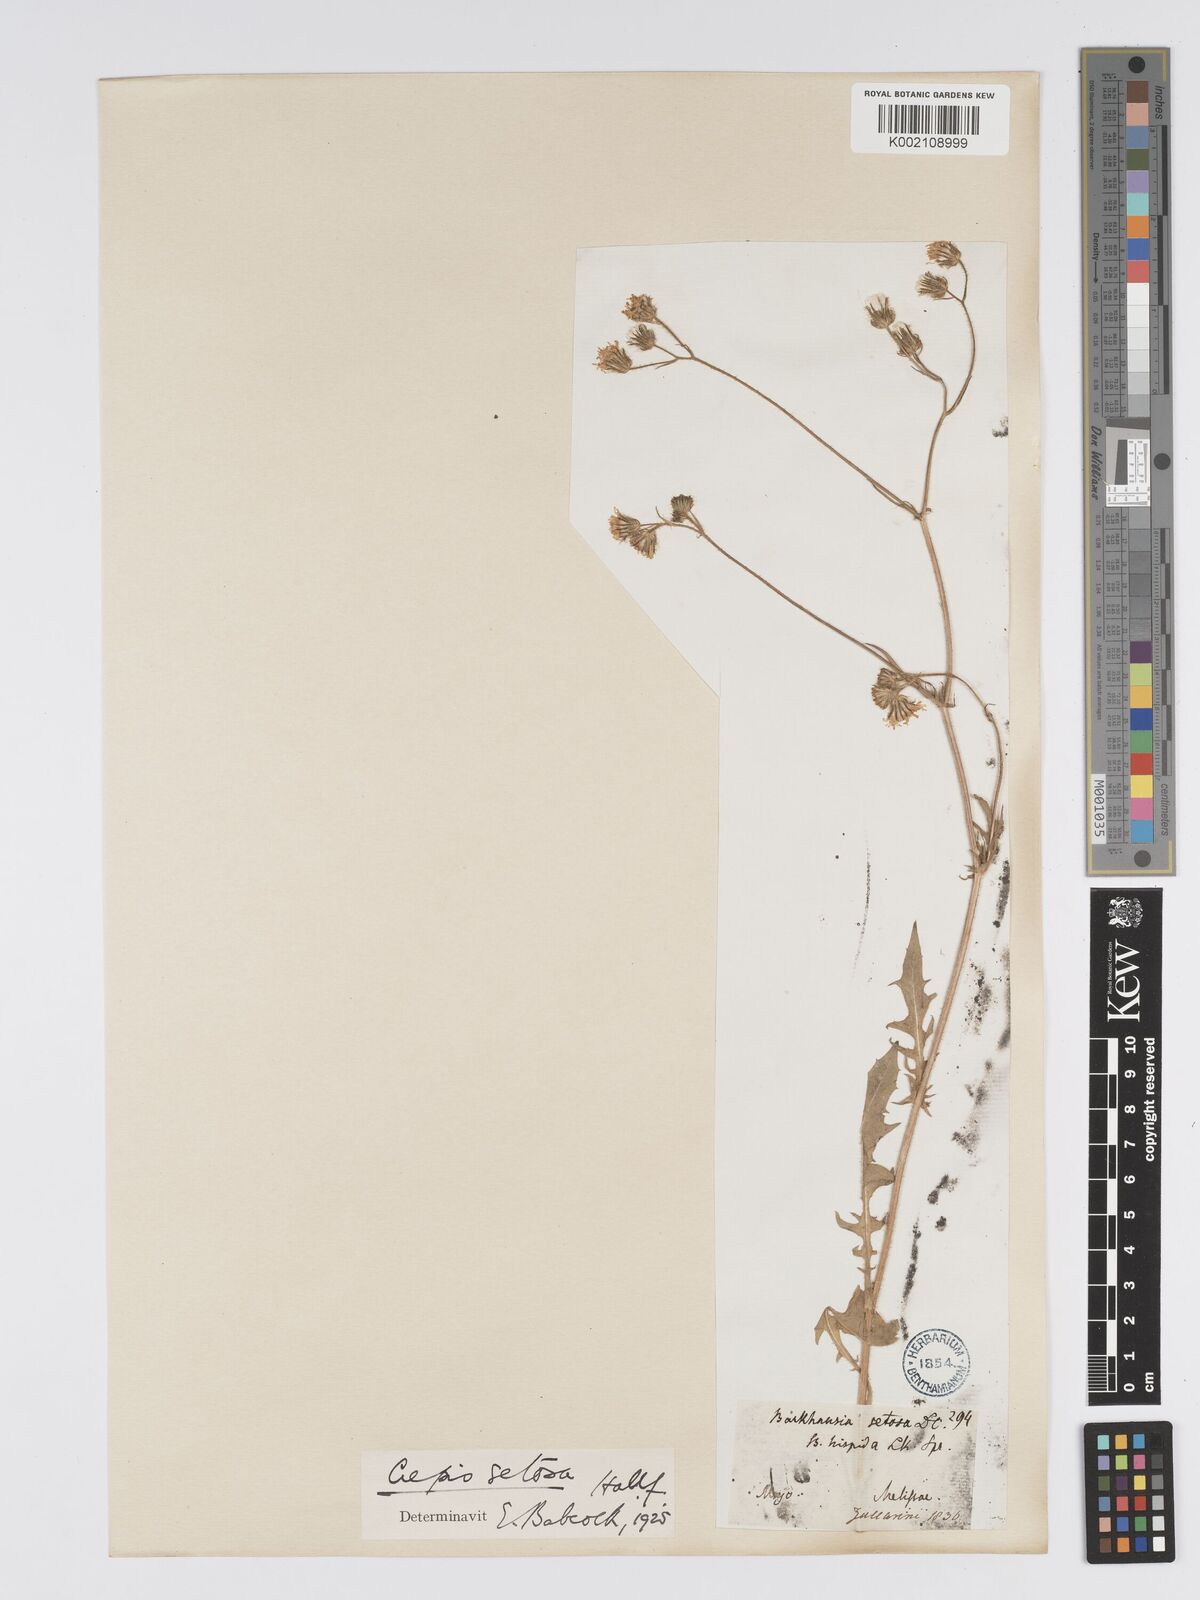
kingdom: Plantae
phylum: Tracheophyta
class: Magnoliopsida
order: Asterales
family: Asteraceae
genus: Crepis
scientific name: Crepis setosa
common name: Bristly hawk's-beard
